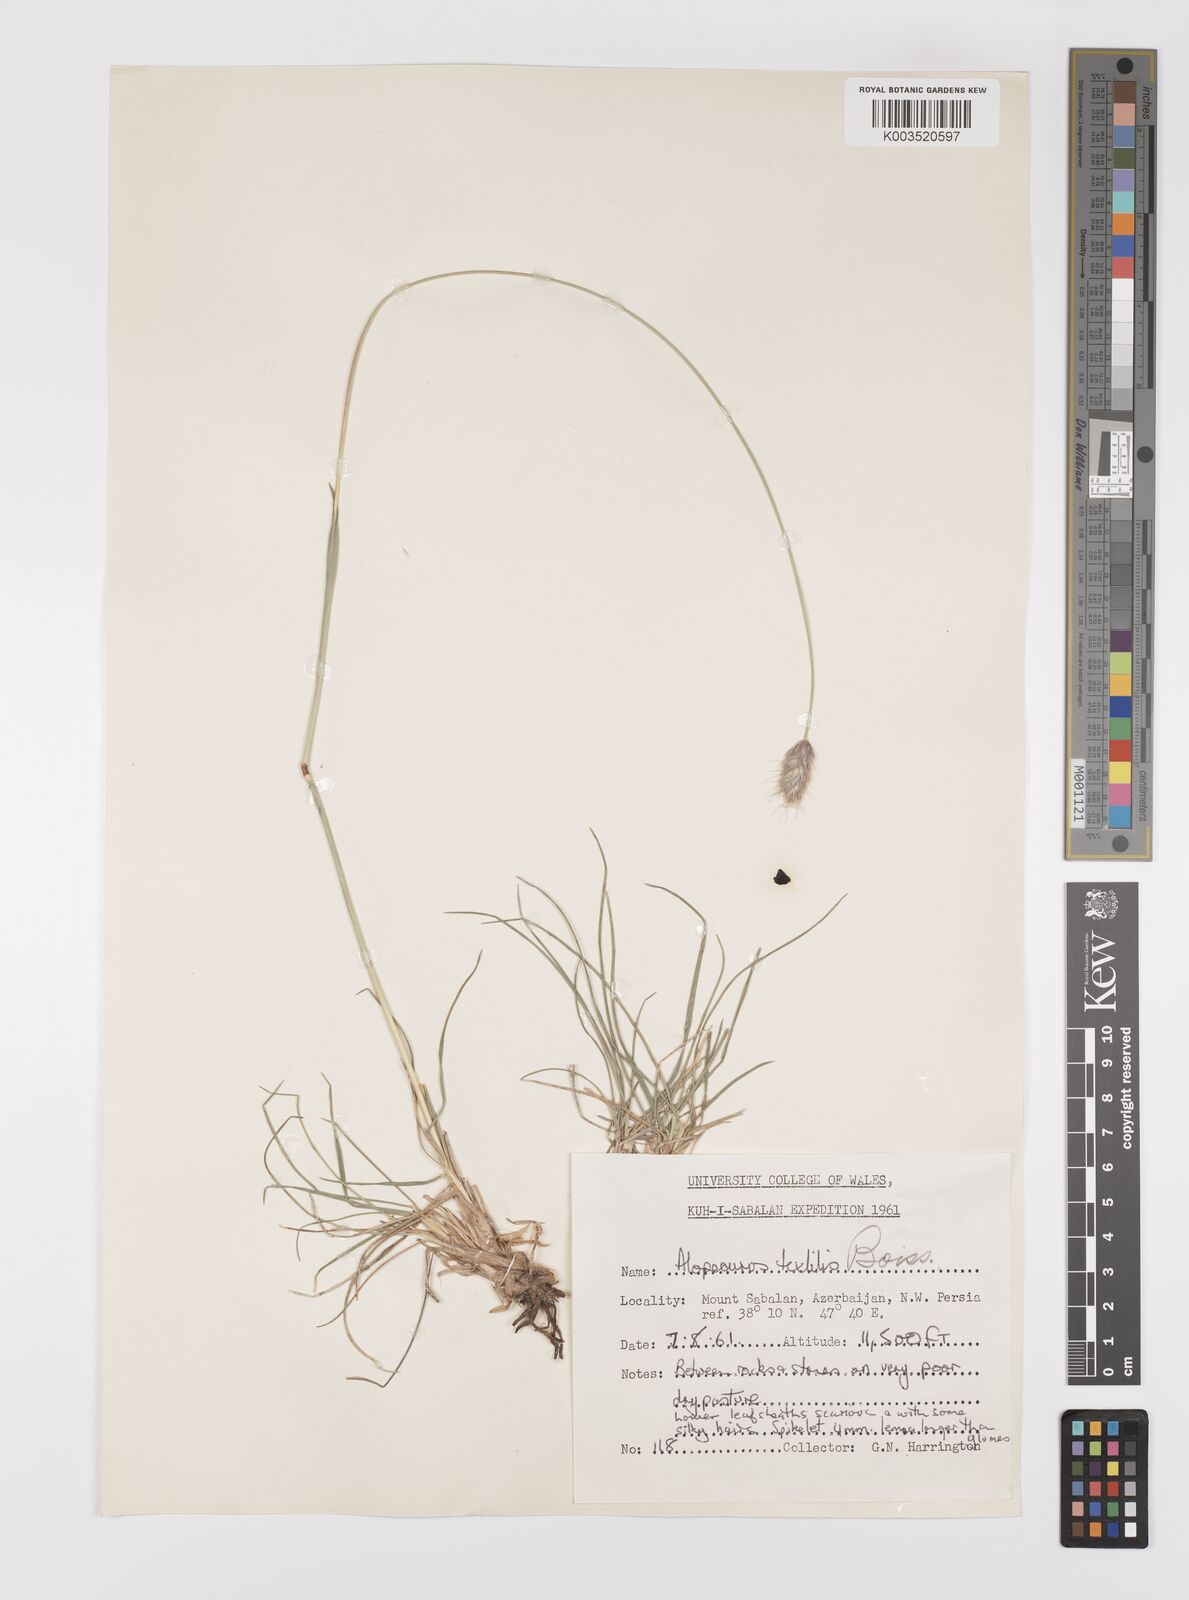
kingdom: Plantae
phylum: Tracheophyta
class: Liliopsida
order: Poales
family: Poaceae
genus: Alopecurus
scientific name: Alopecurus textilis
